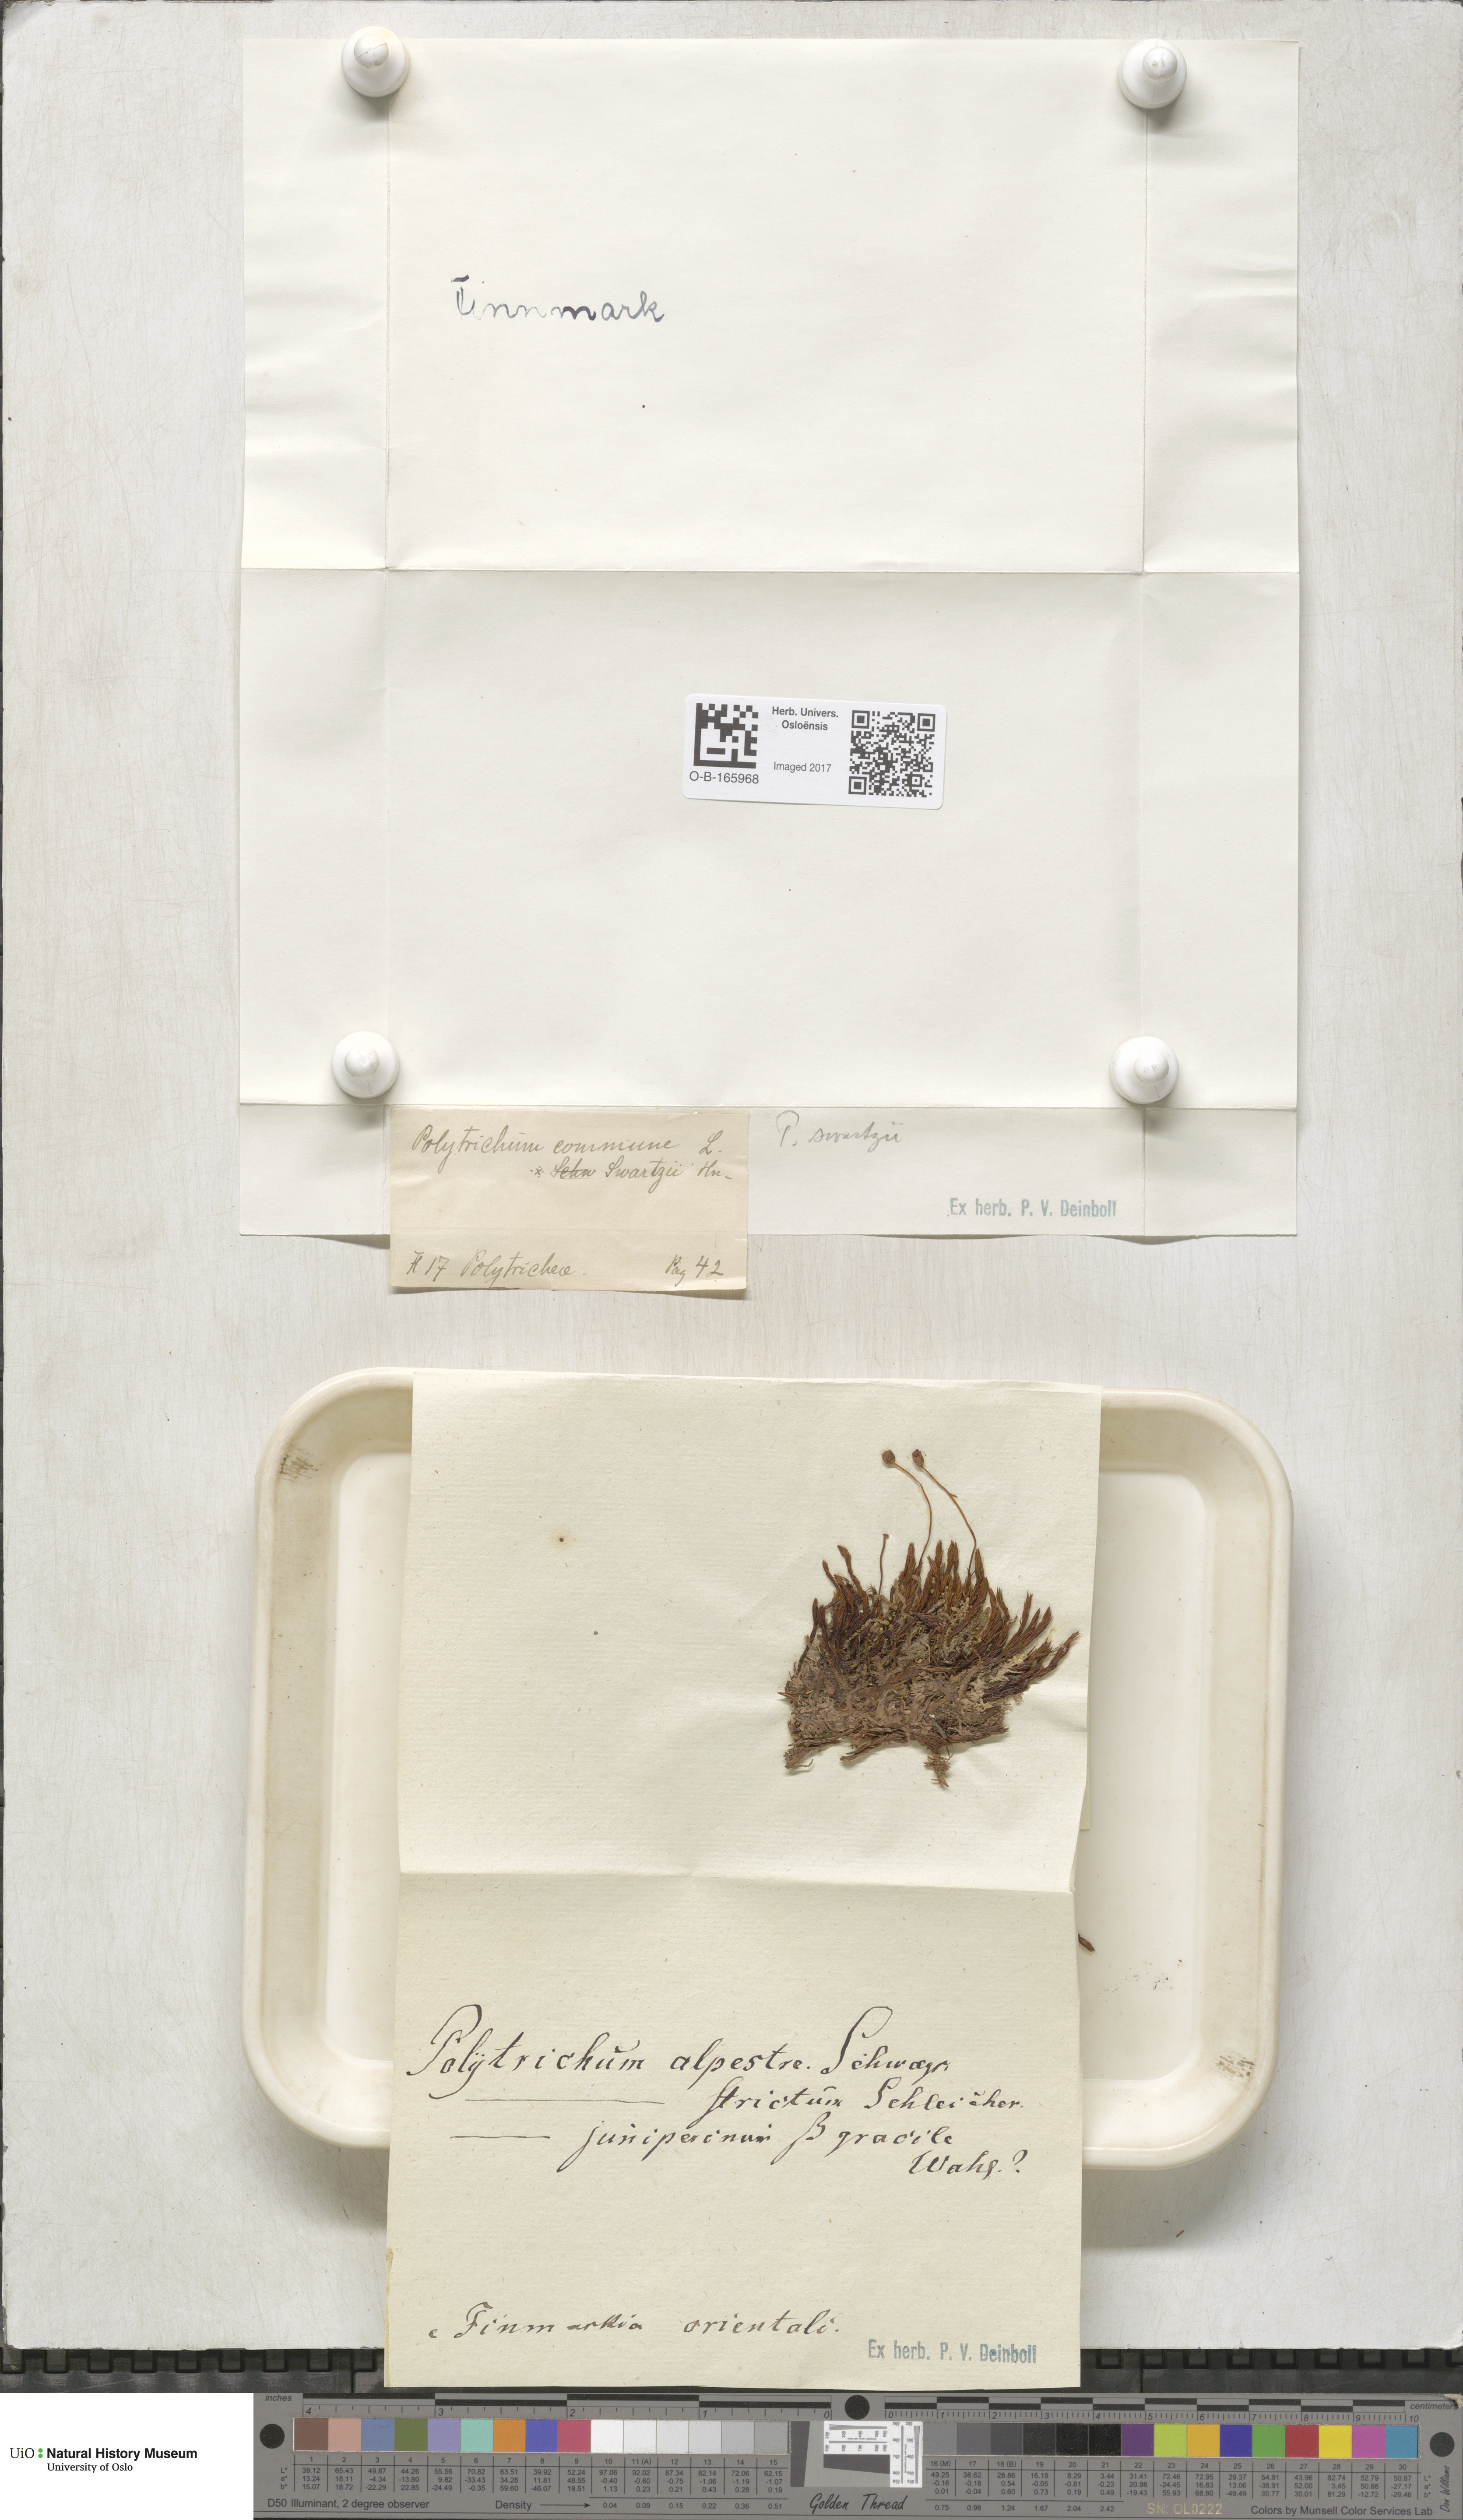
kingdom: Plantae
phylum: Bryophyta
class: Polytrichopsida
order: Polytrichales
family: Polytrichaceae
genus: Polytrichum
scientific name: Polytrichum swartzii
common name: Swartz's haircap moss
